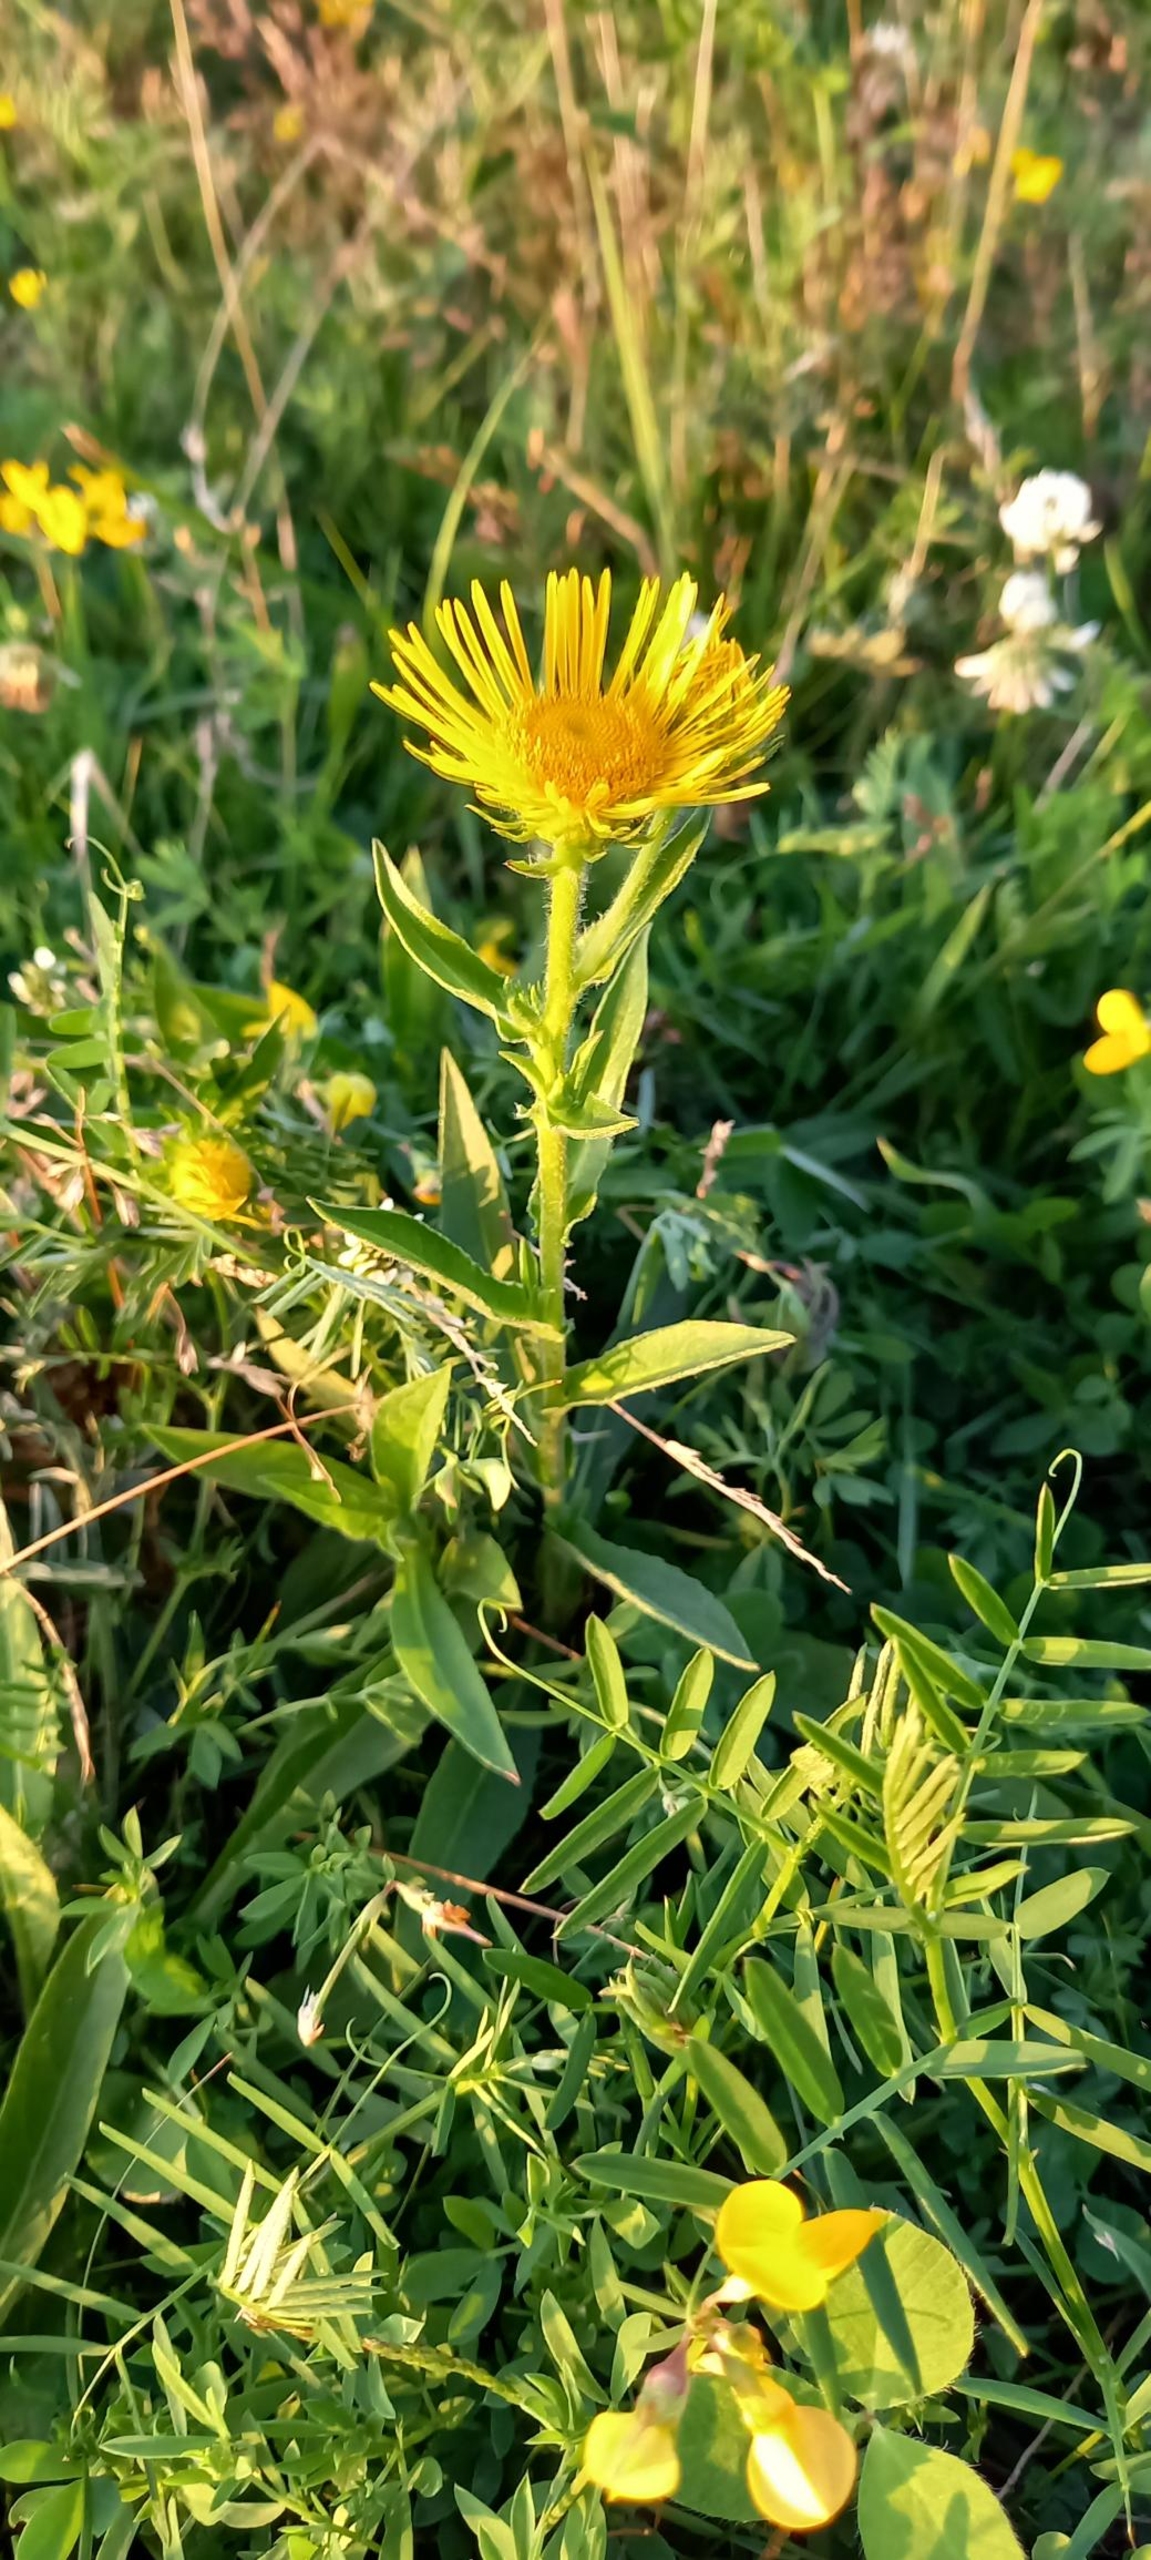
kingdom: Plantae
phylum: Tracheophyta
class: Magnoliopsida
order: Asterales
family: Asteraceae
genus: Pentanema
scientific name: Pentanema britannicum
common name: Soløje-alant
